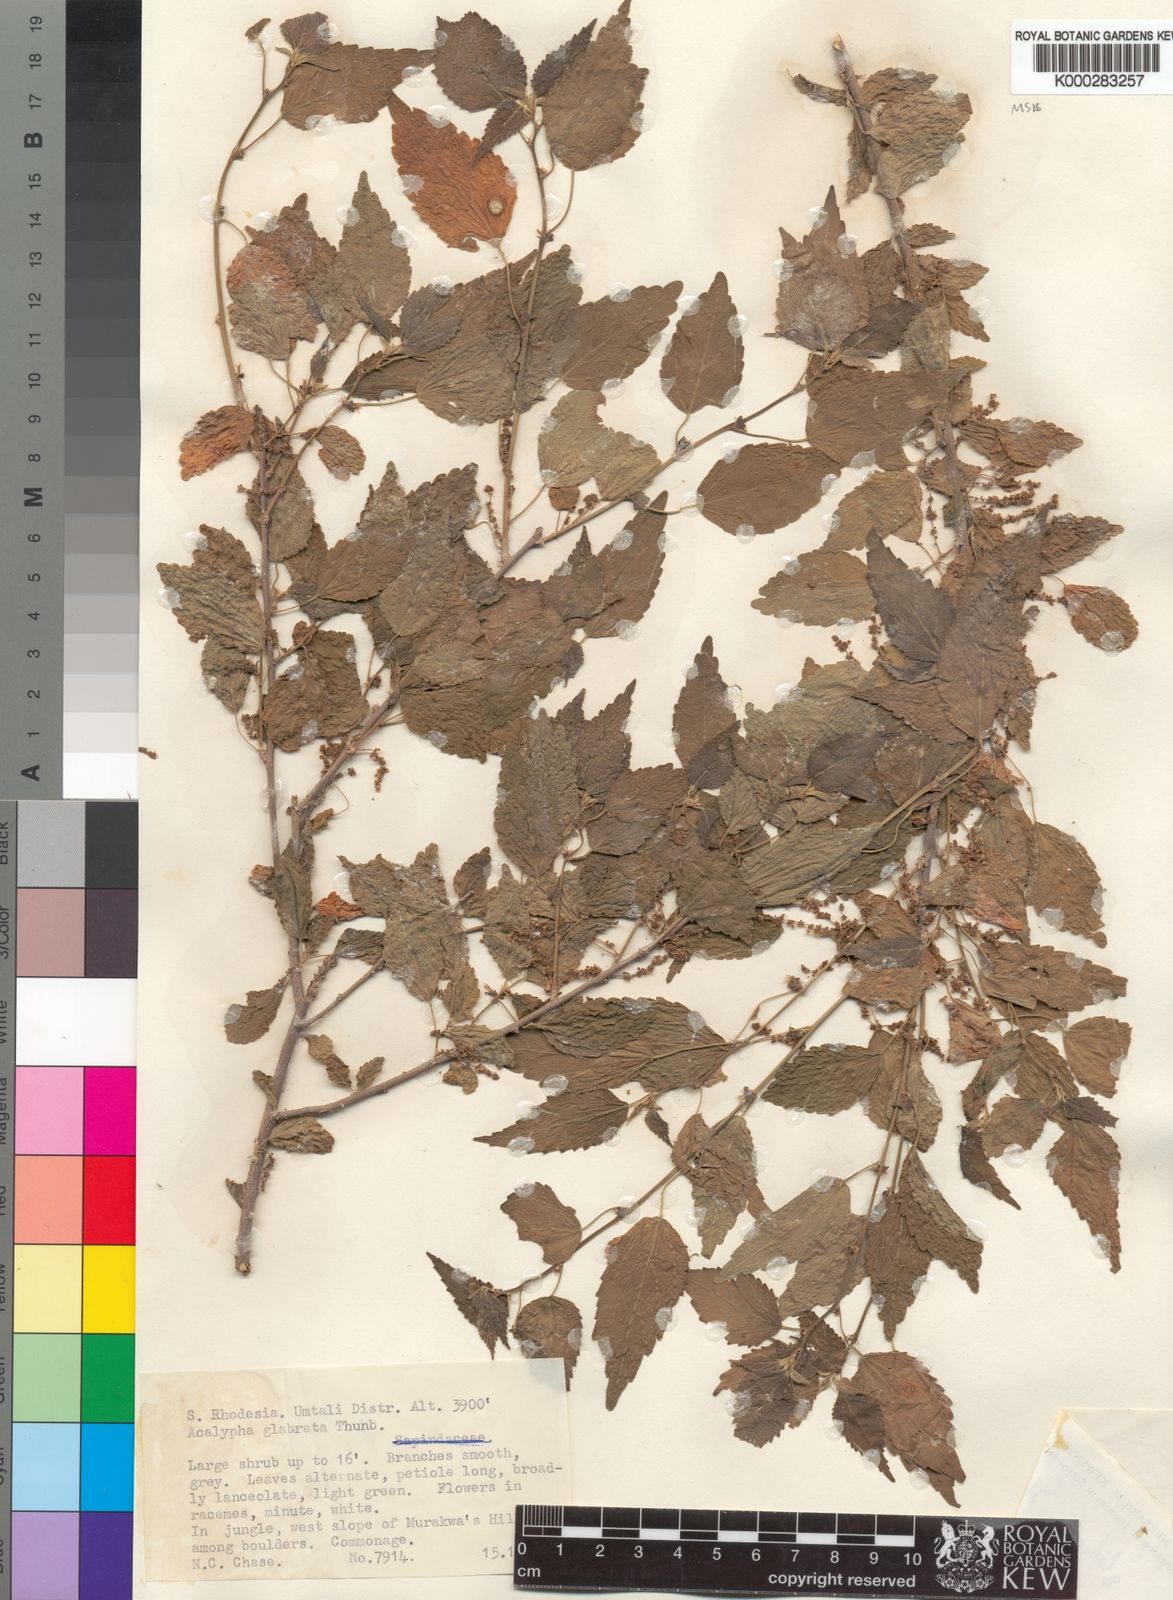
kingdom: Plantae
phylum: Tracheophyta
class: Magnoliopsida
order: Malpighiales
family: Euphorbiaceae
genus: Acalypha
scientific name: Acalypha glabrata
